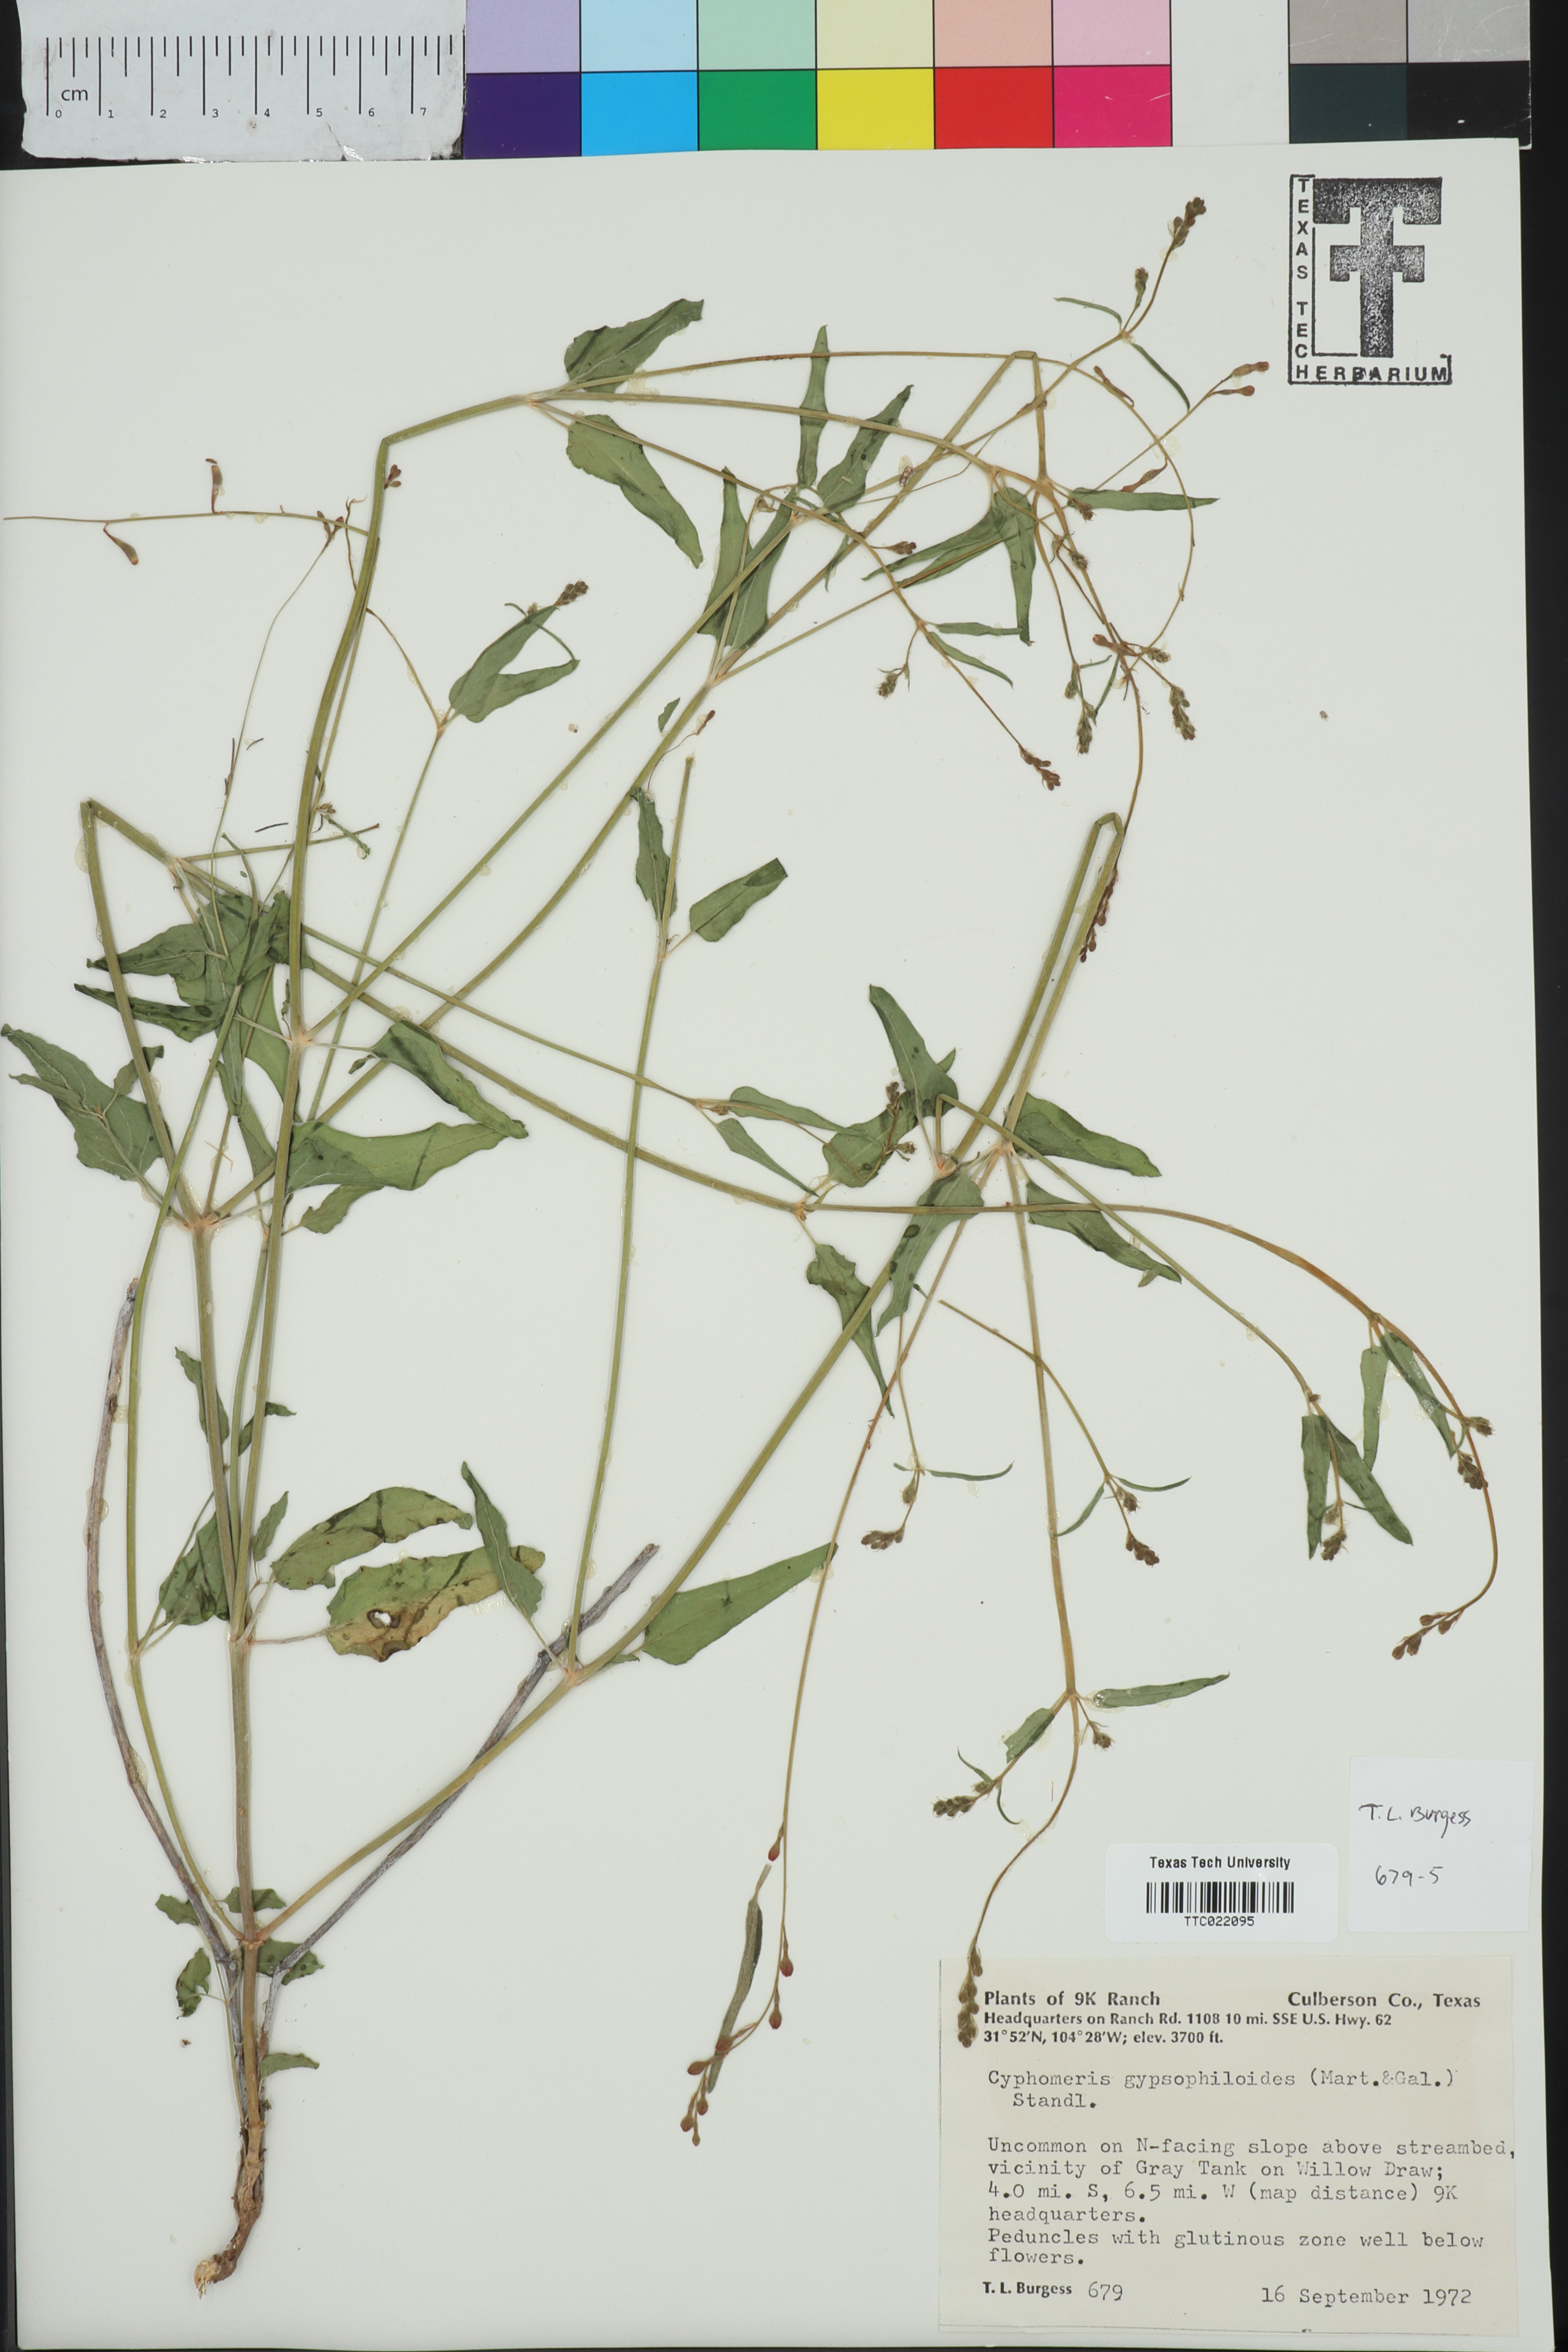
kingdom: Plantae
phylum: Tracheophyta
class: Magnoliopsida
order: Caryophyllales
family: Nyctaginaceae
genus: Cyphomeris
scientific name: Cyphomeris gypsophiloides
